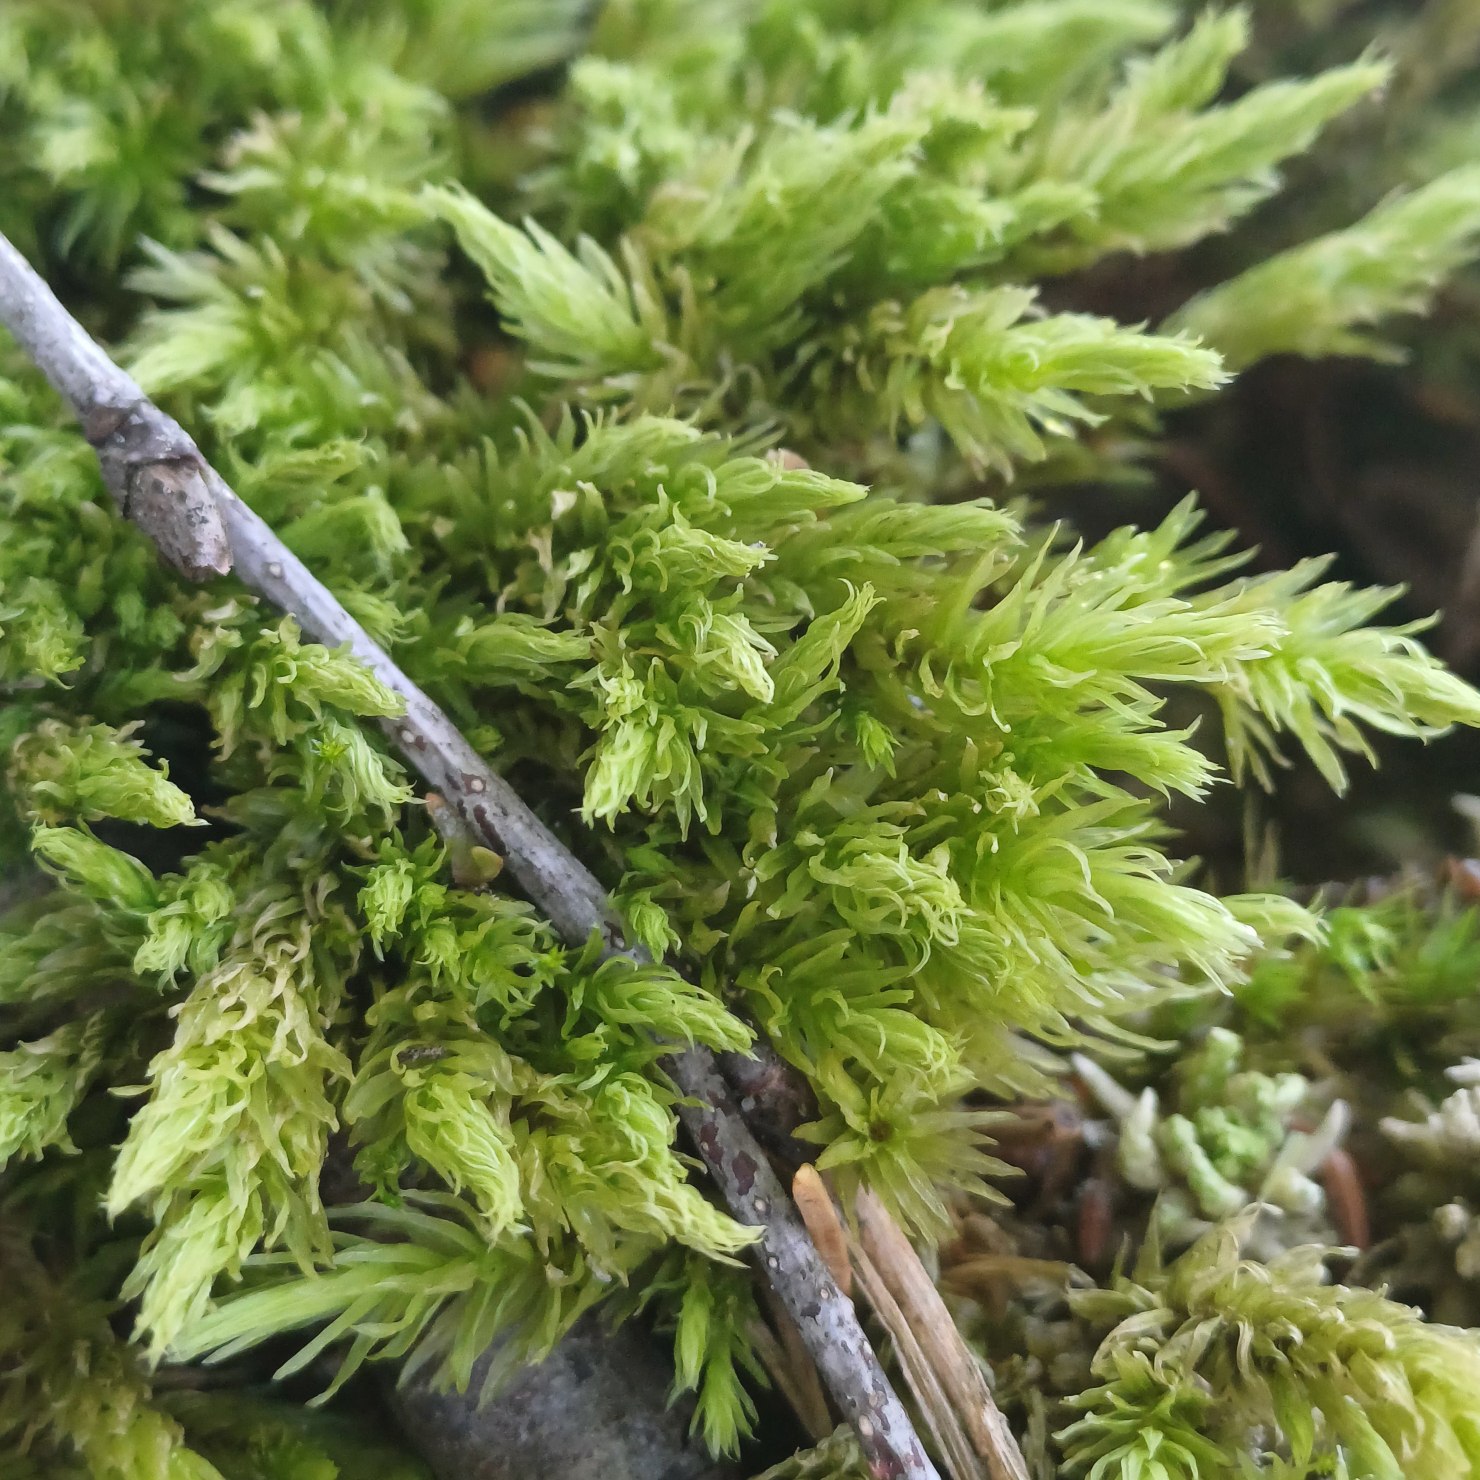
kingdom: Plantae
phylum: Bryophyta
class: Bryopsida
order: Aulacomniales
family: Aulacomniaceae
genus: Aulacomnium
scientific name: Aulacomnium palustre
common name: Almindelig filtmos
